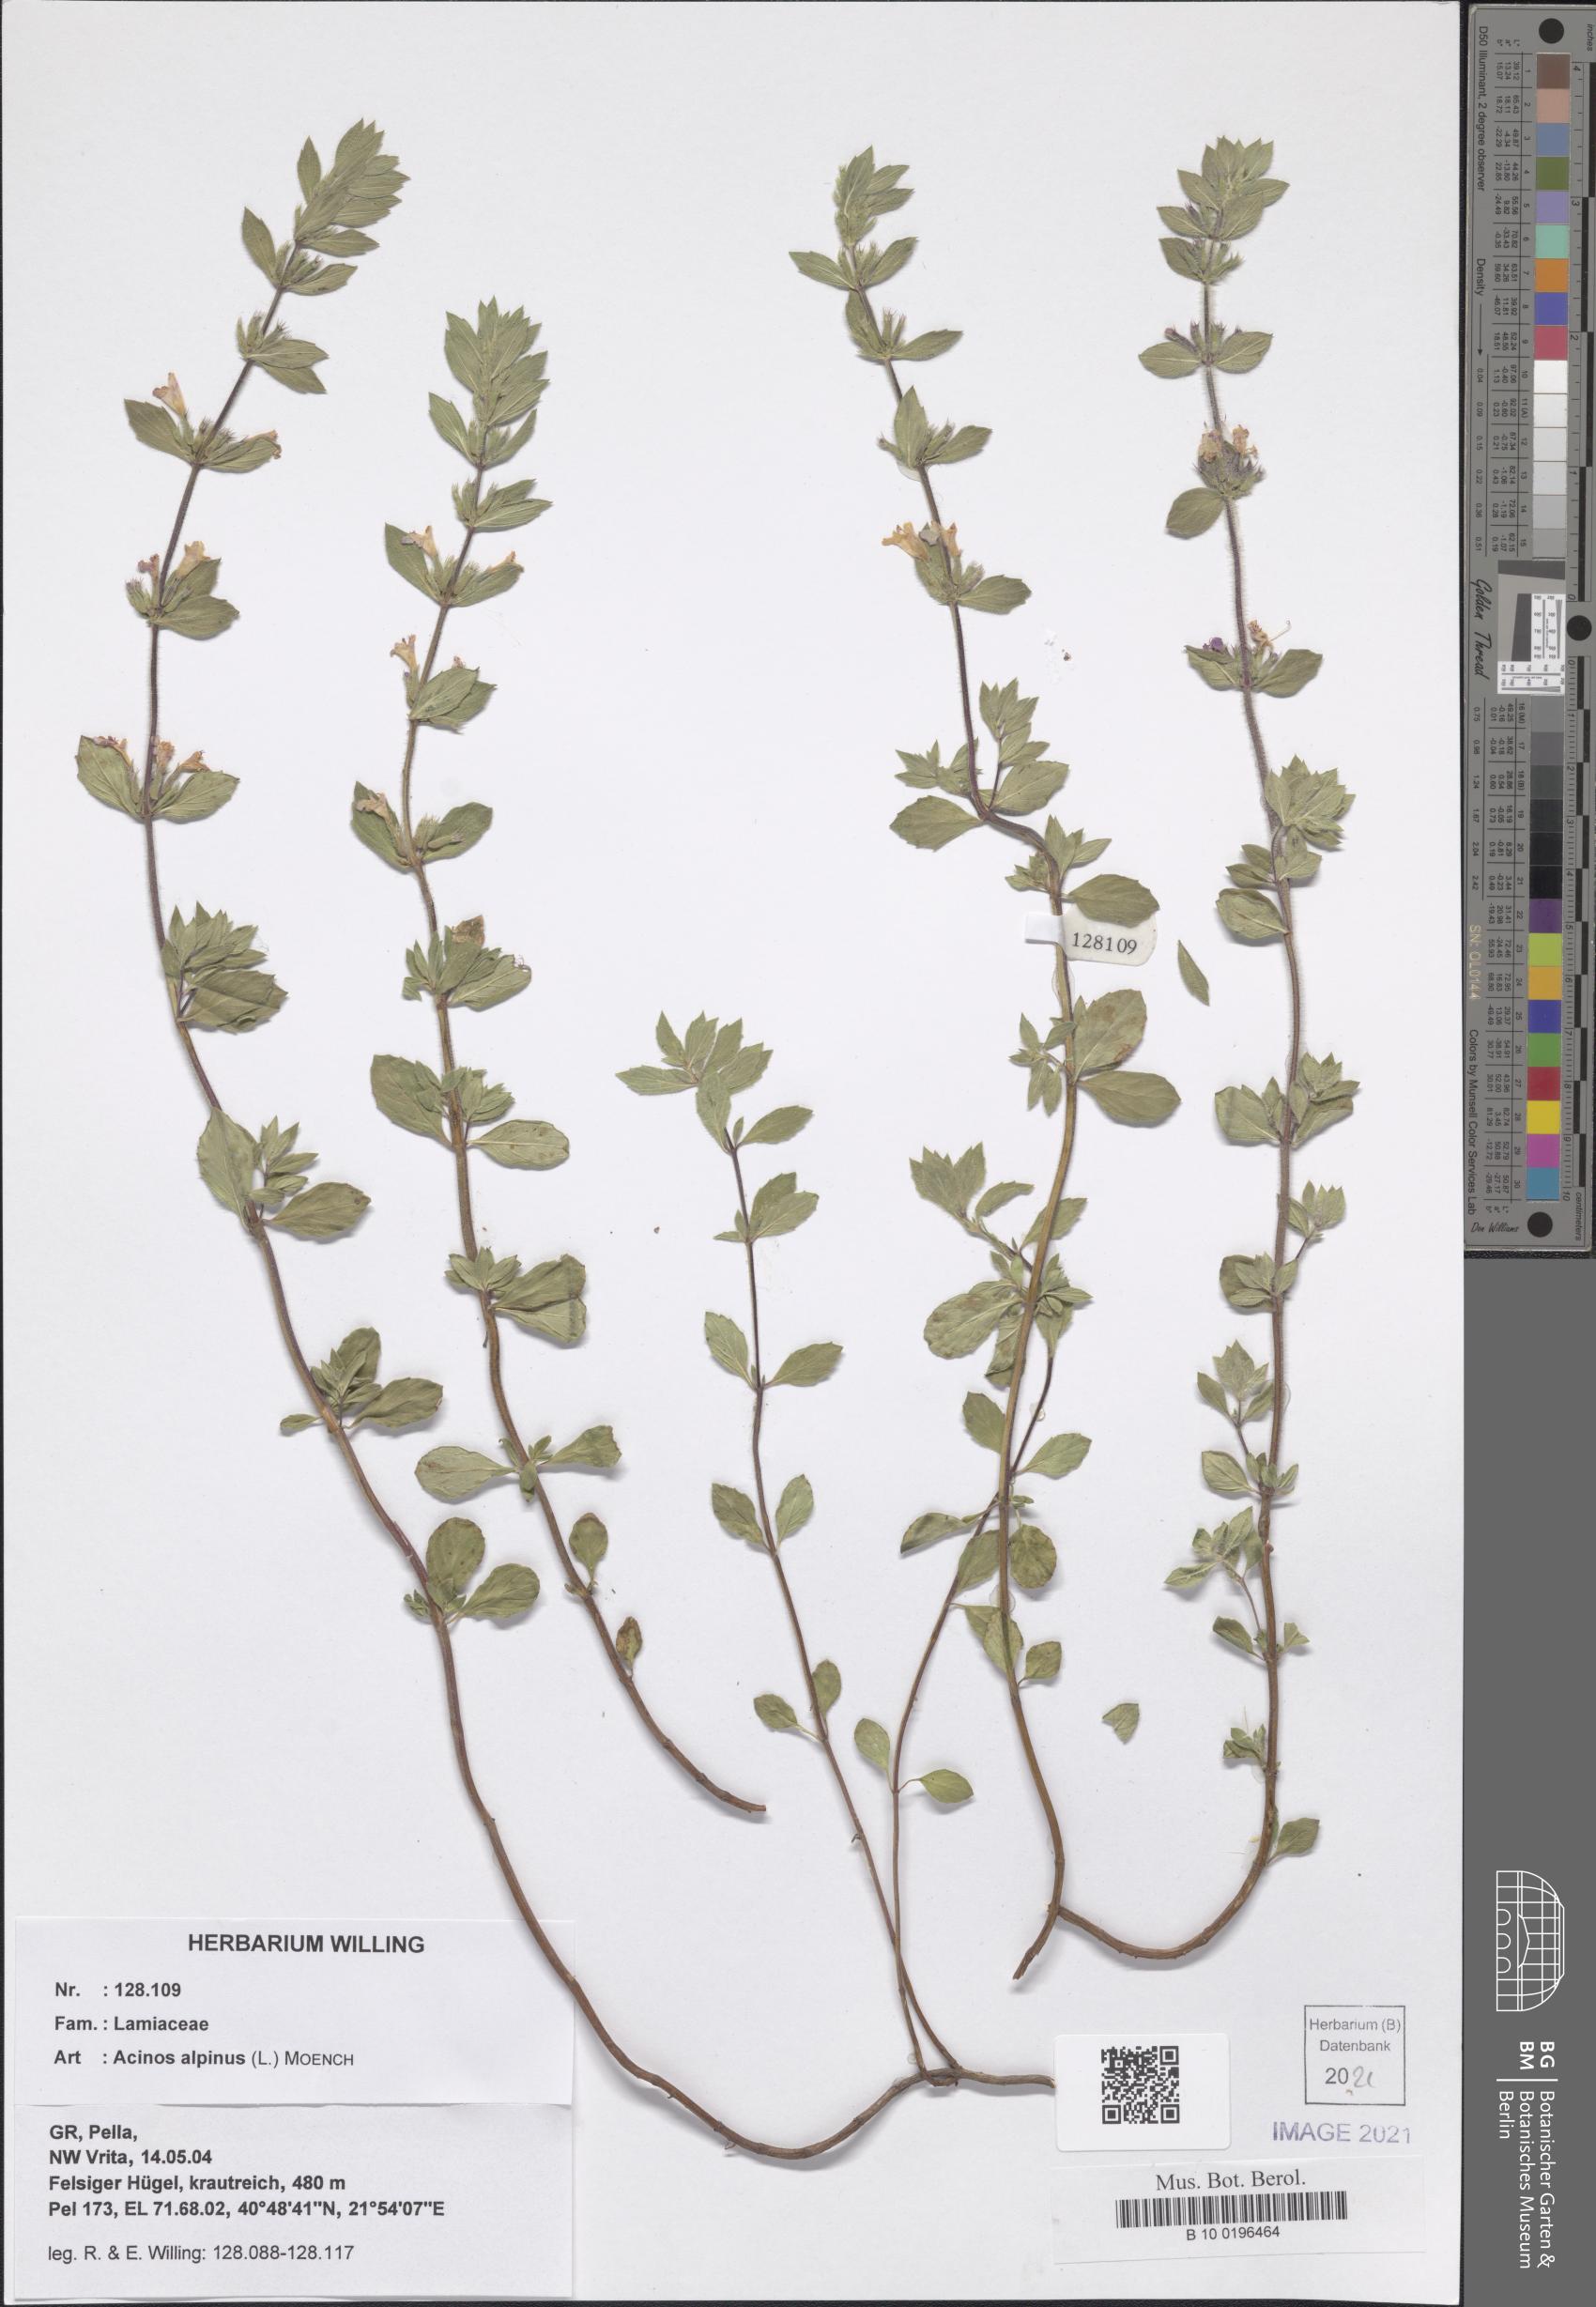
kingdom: Plantae
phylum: Tracheophyta
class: Magnoliopsida
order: Lamiales
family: Lamiaceae
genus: Clinopodium
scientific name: Clinopodium alpinum
